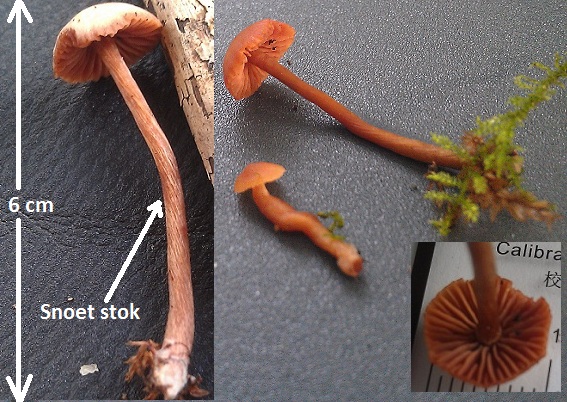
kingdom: Fungi
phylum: Basidiomycota
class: Agaricomycetes
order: Agaricales
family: Hydnangiaceae
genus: Laccaria
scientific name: Laccaria laccata
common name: rød ametysthat
